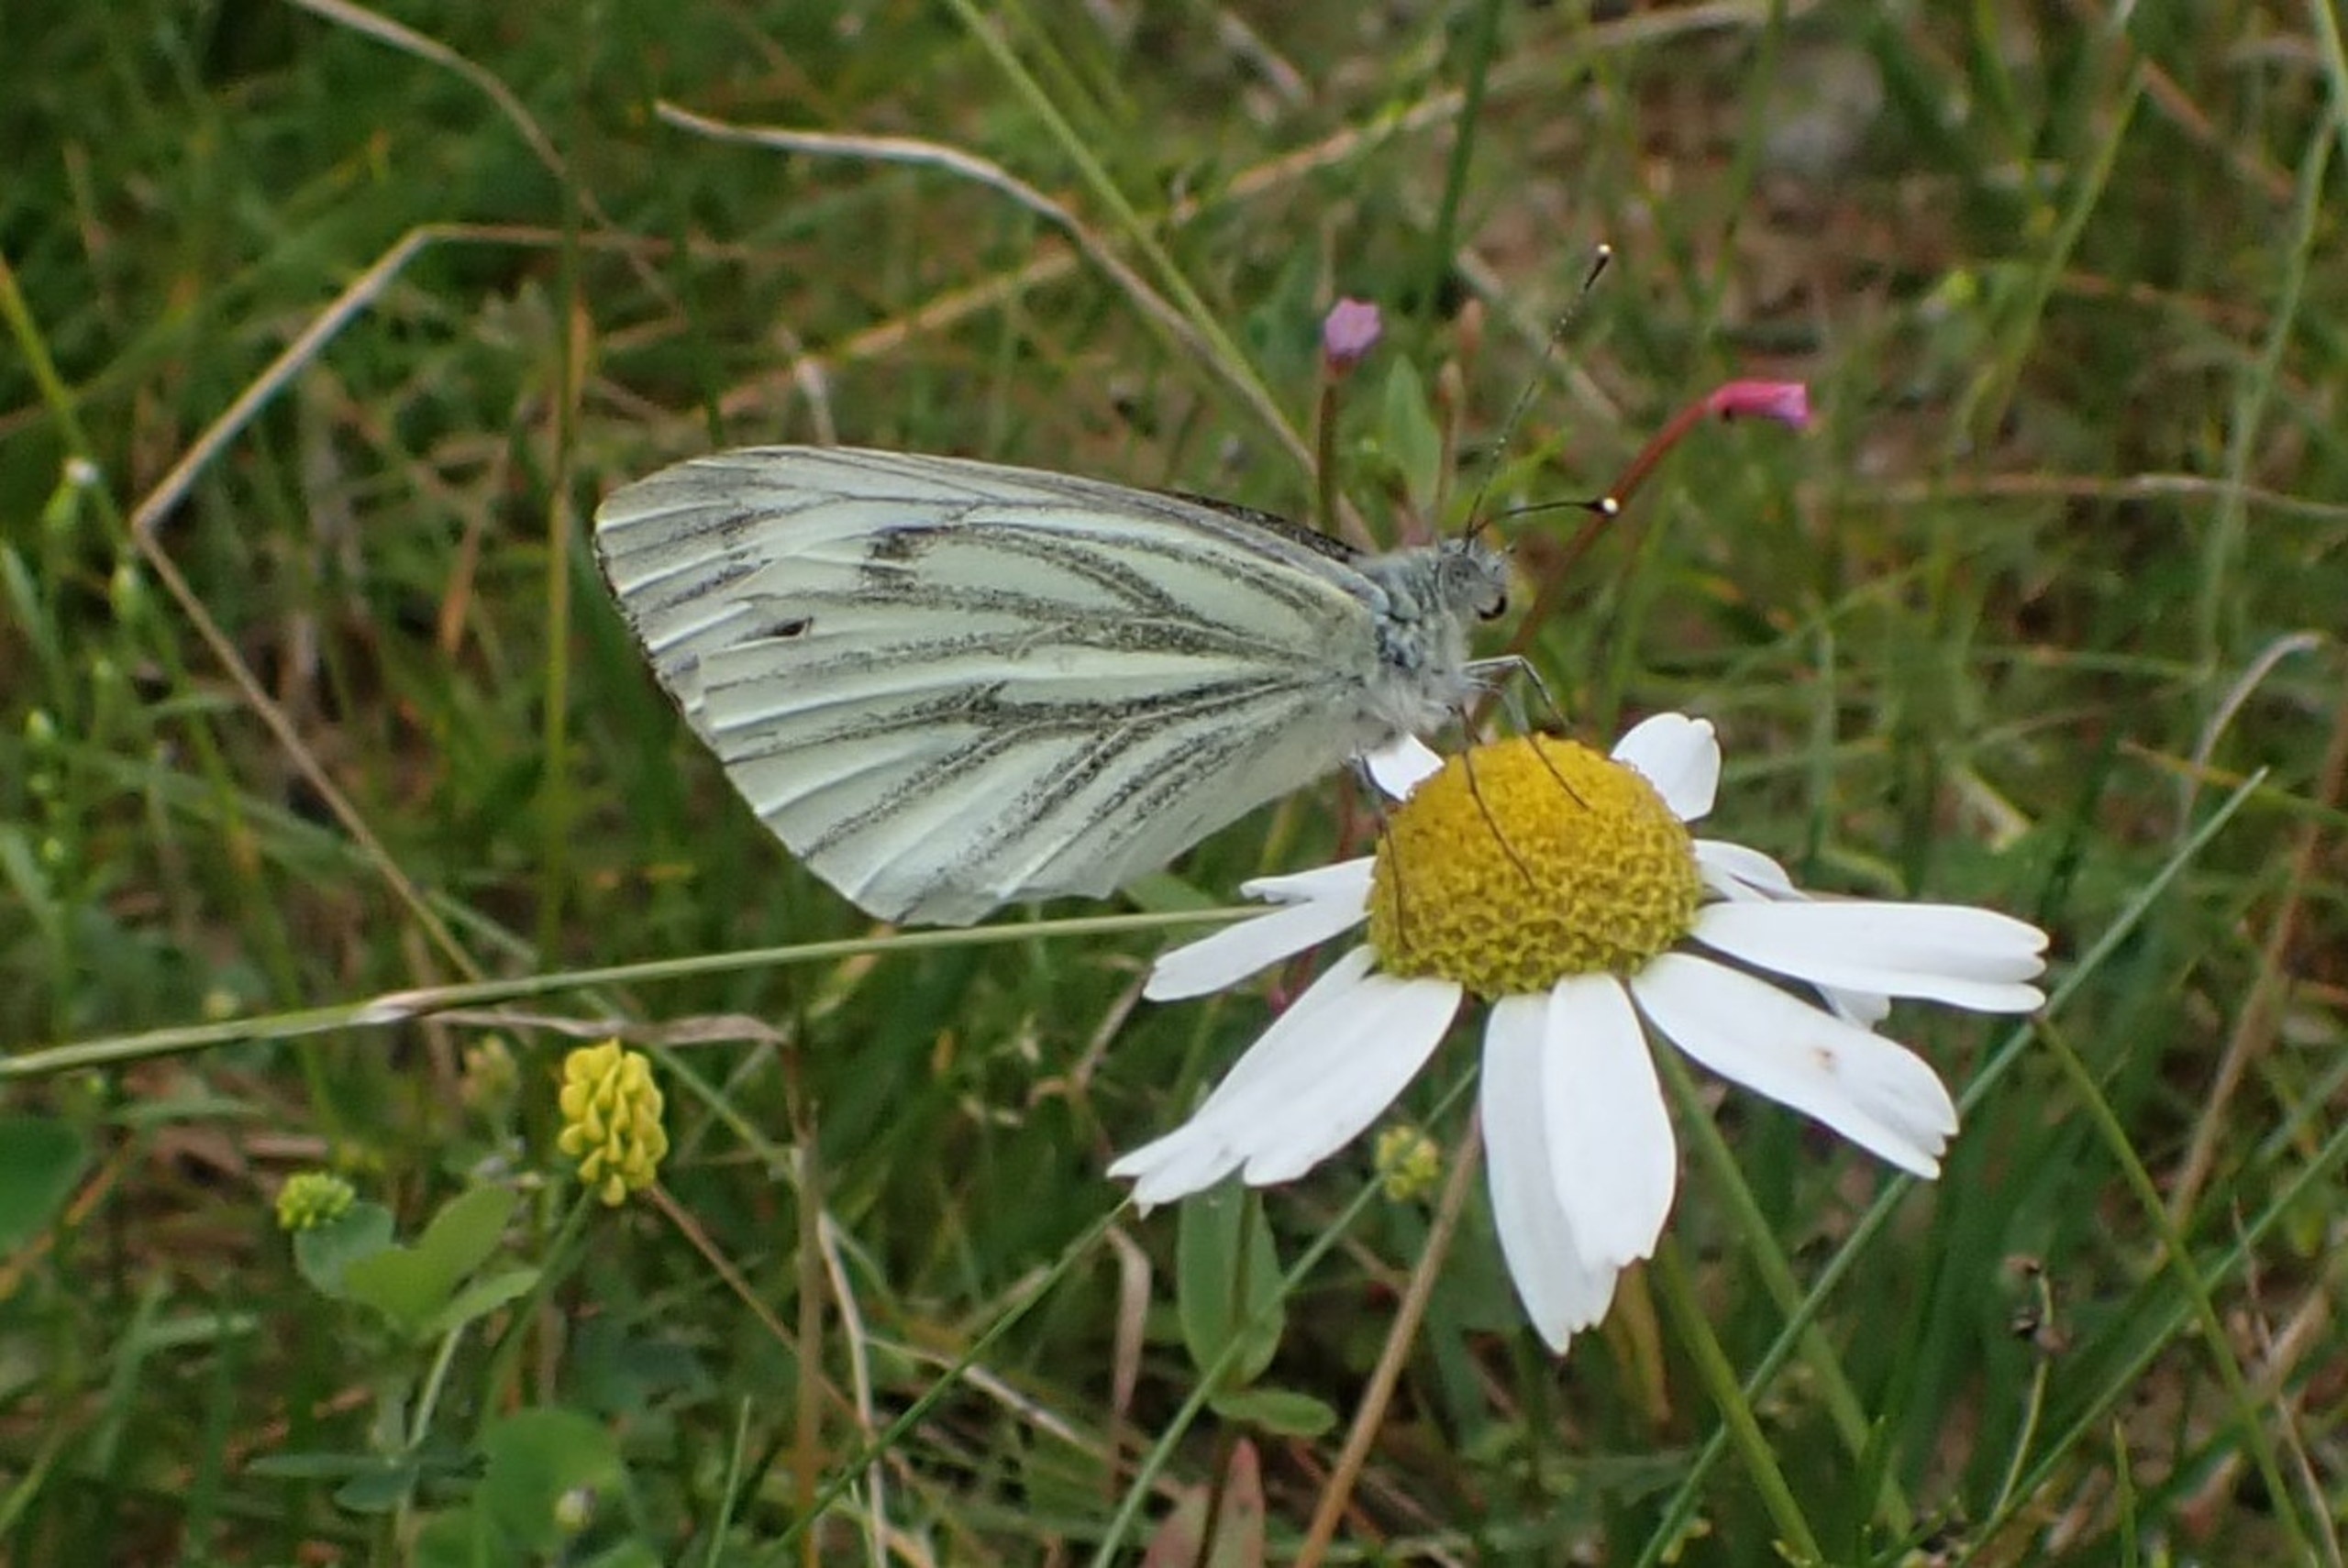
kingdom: Animalia
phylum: Arthropoda
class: Insecta
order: Lepidoptera
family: Pieridae
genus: Pieris
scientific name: Pieris napi
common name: Grønåret kålsommerfugl
